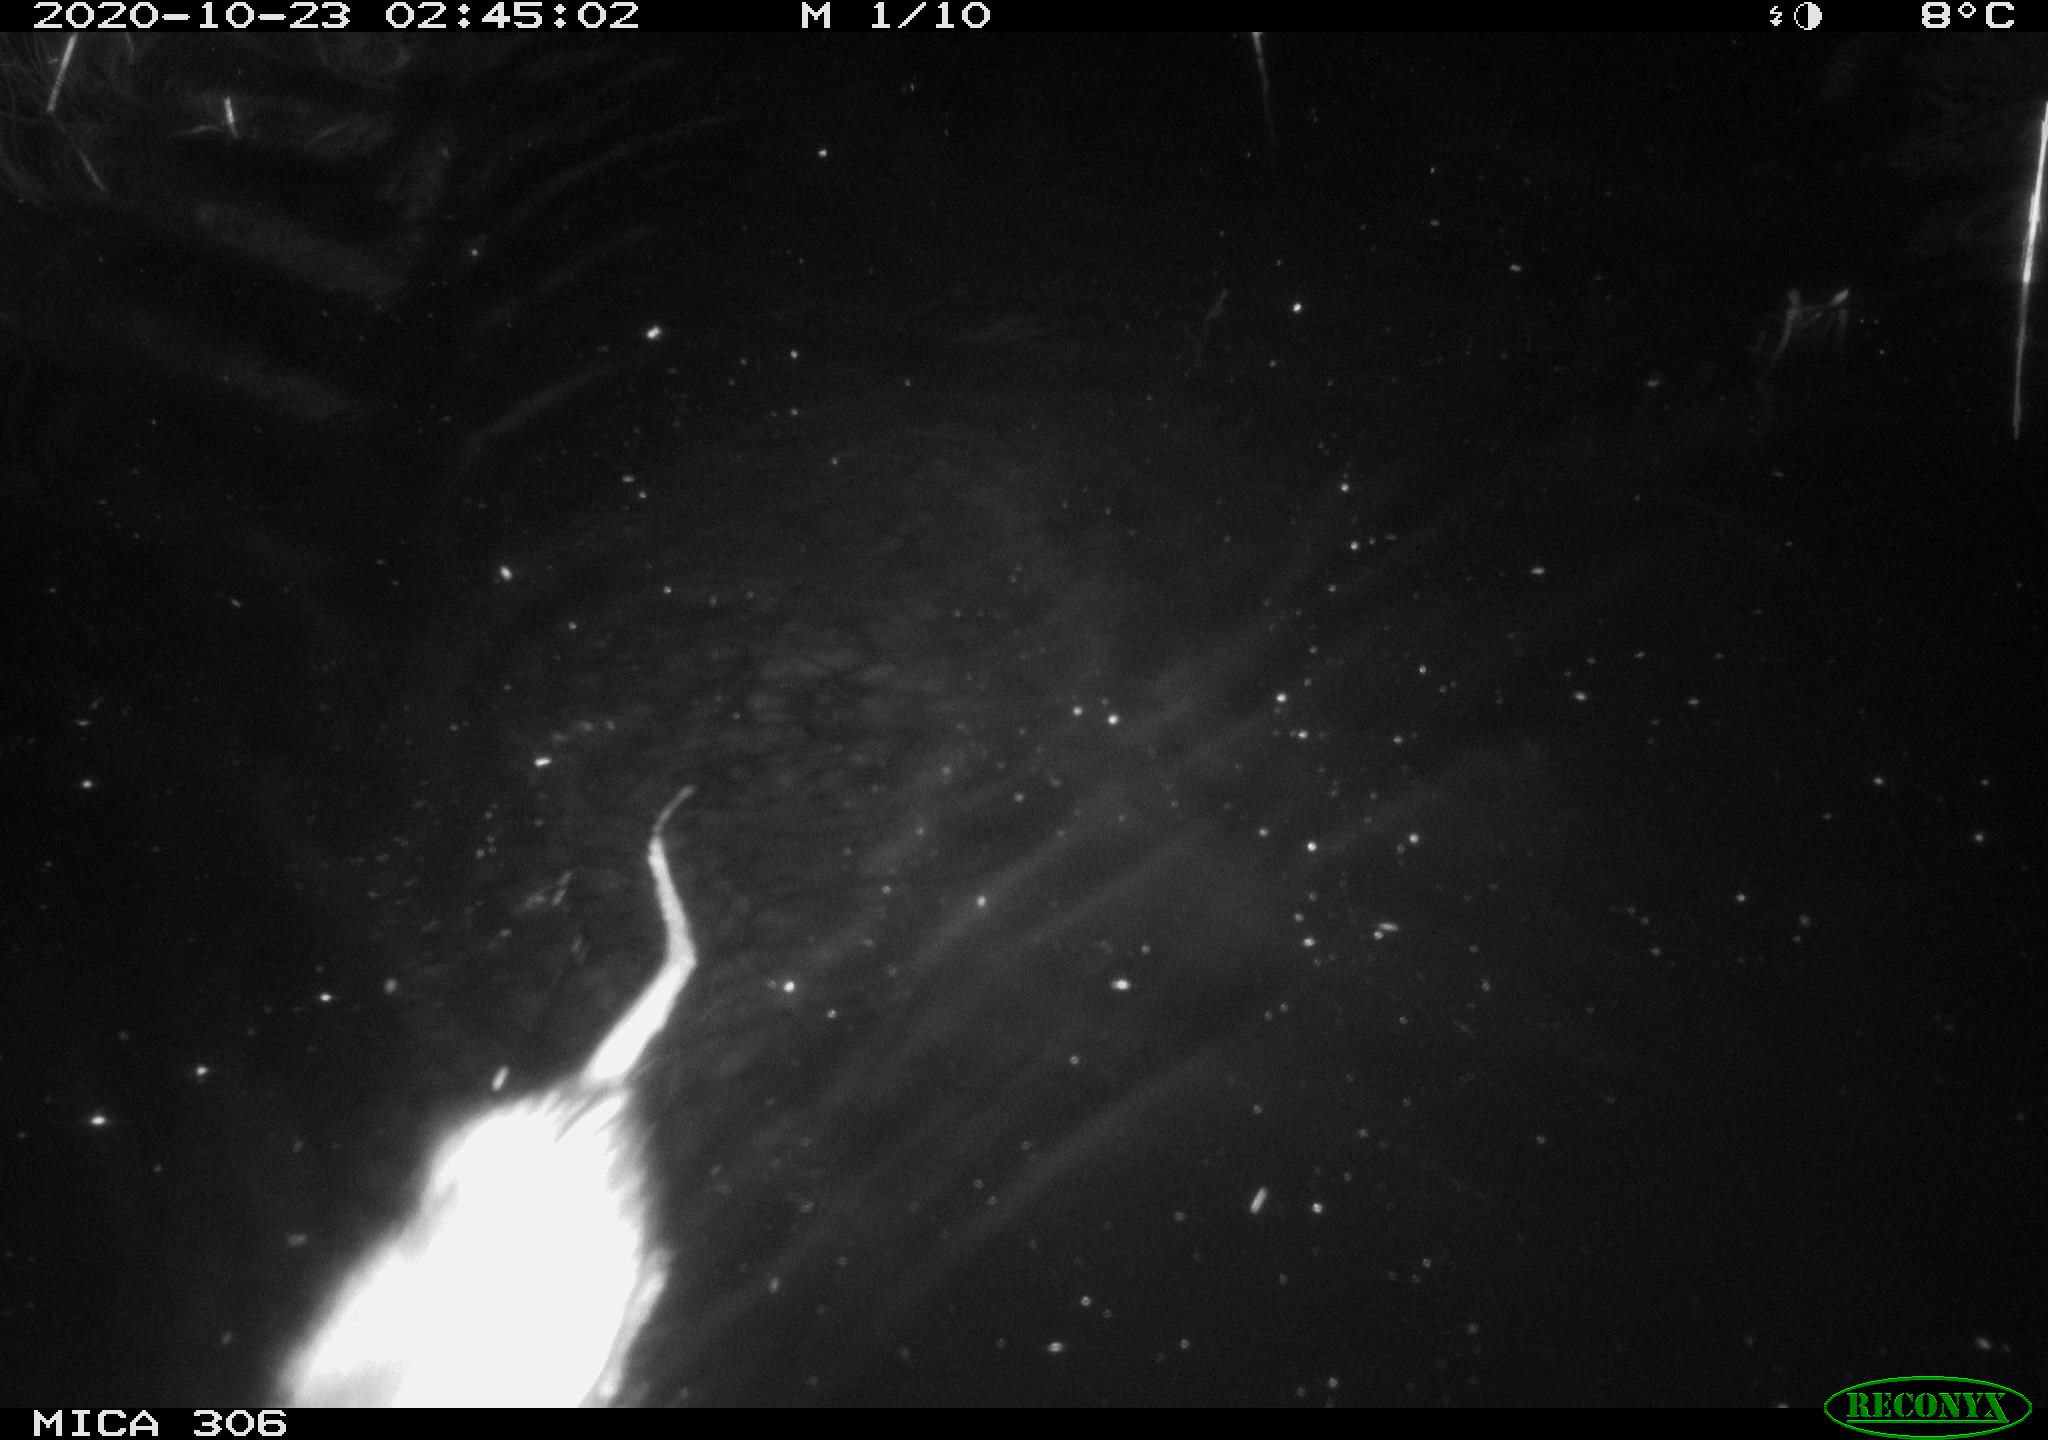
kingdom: Animalia
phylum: Chordata
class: Mammalia
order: Rodentia
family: Cricetidae
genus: Ondatra
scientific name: Ondatra zibethicus
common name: Muskrat
